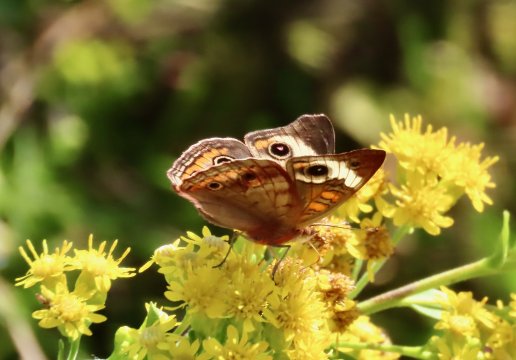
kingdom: Animalia
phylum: Arthropoda
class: Insecta
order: Lepidoptera
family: Nymphalidae
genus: Junonia
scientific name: Junonia coenia
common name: Common Buckeye
